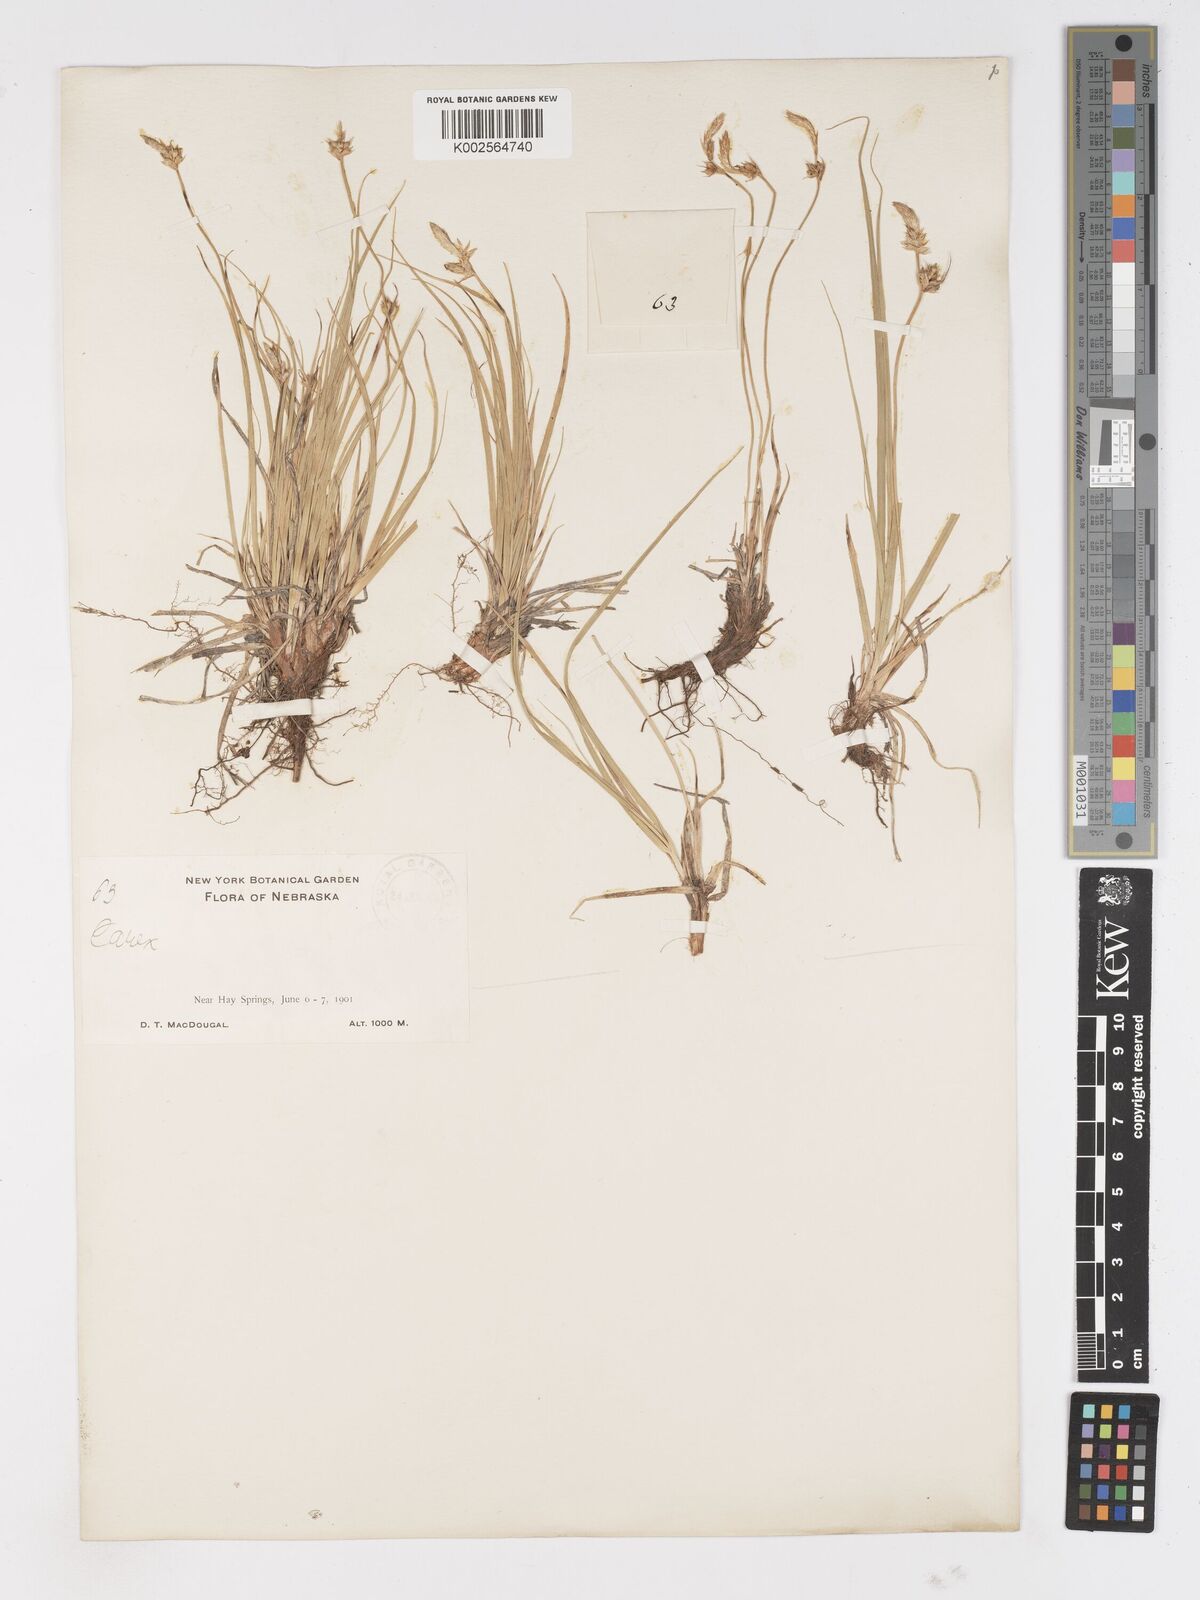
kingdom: Plantae
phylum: Tracheophyta
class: Liliopsida
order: Poales
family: Cyperaceae
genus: Carex
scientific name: Carex
